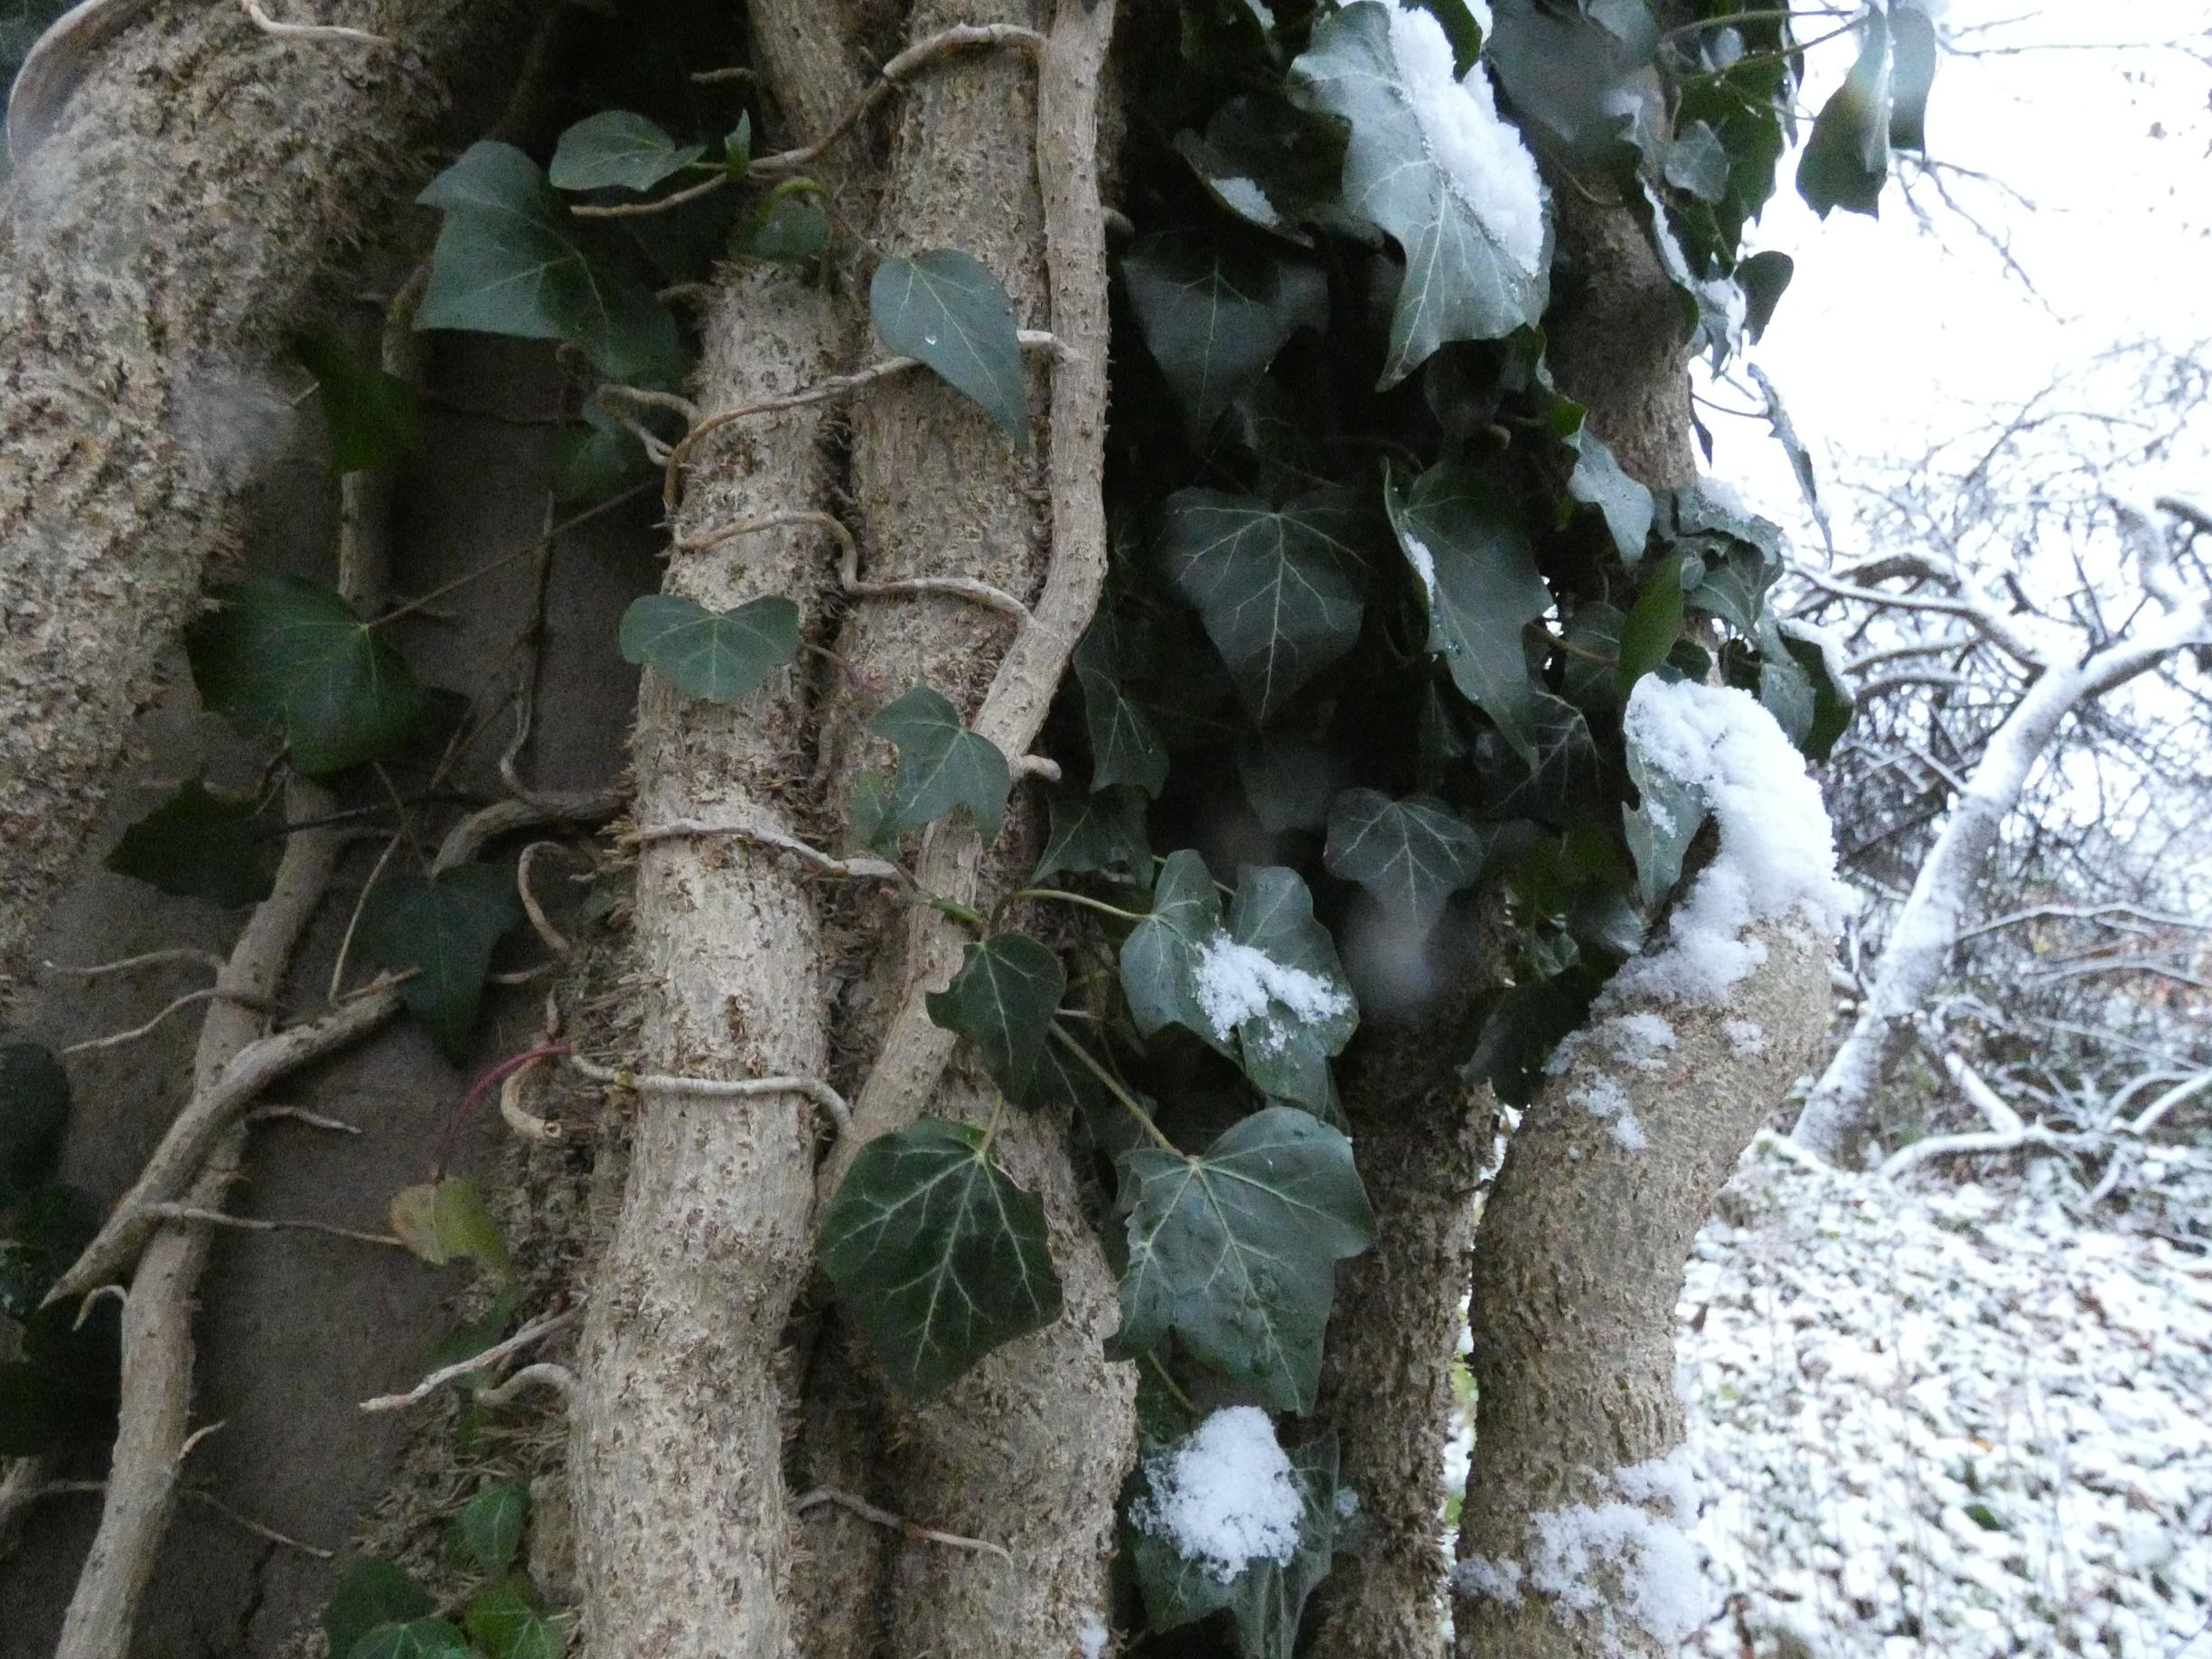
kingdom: Plantae
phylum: Tracheophyta
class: Magnoliopsida
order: Apiales
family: Araliaceae
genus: Hedera
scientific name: Hedera helix
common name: Vedbend
